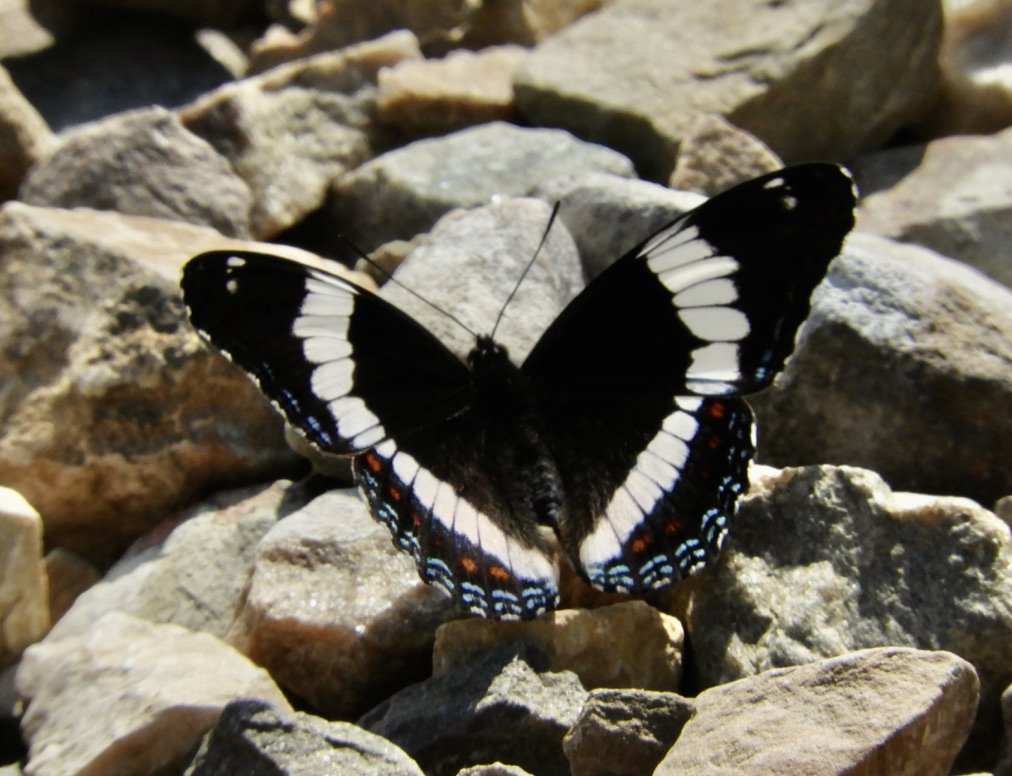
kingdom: Animalia
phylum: Arthropoda
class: Insecta
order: Lepidoptera
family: Nymphalidae
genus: Limenitis
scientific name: Limenitis arthemis
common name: Red-spotted Admiral
